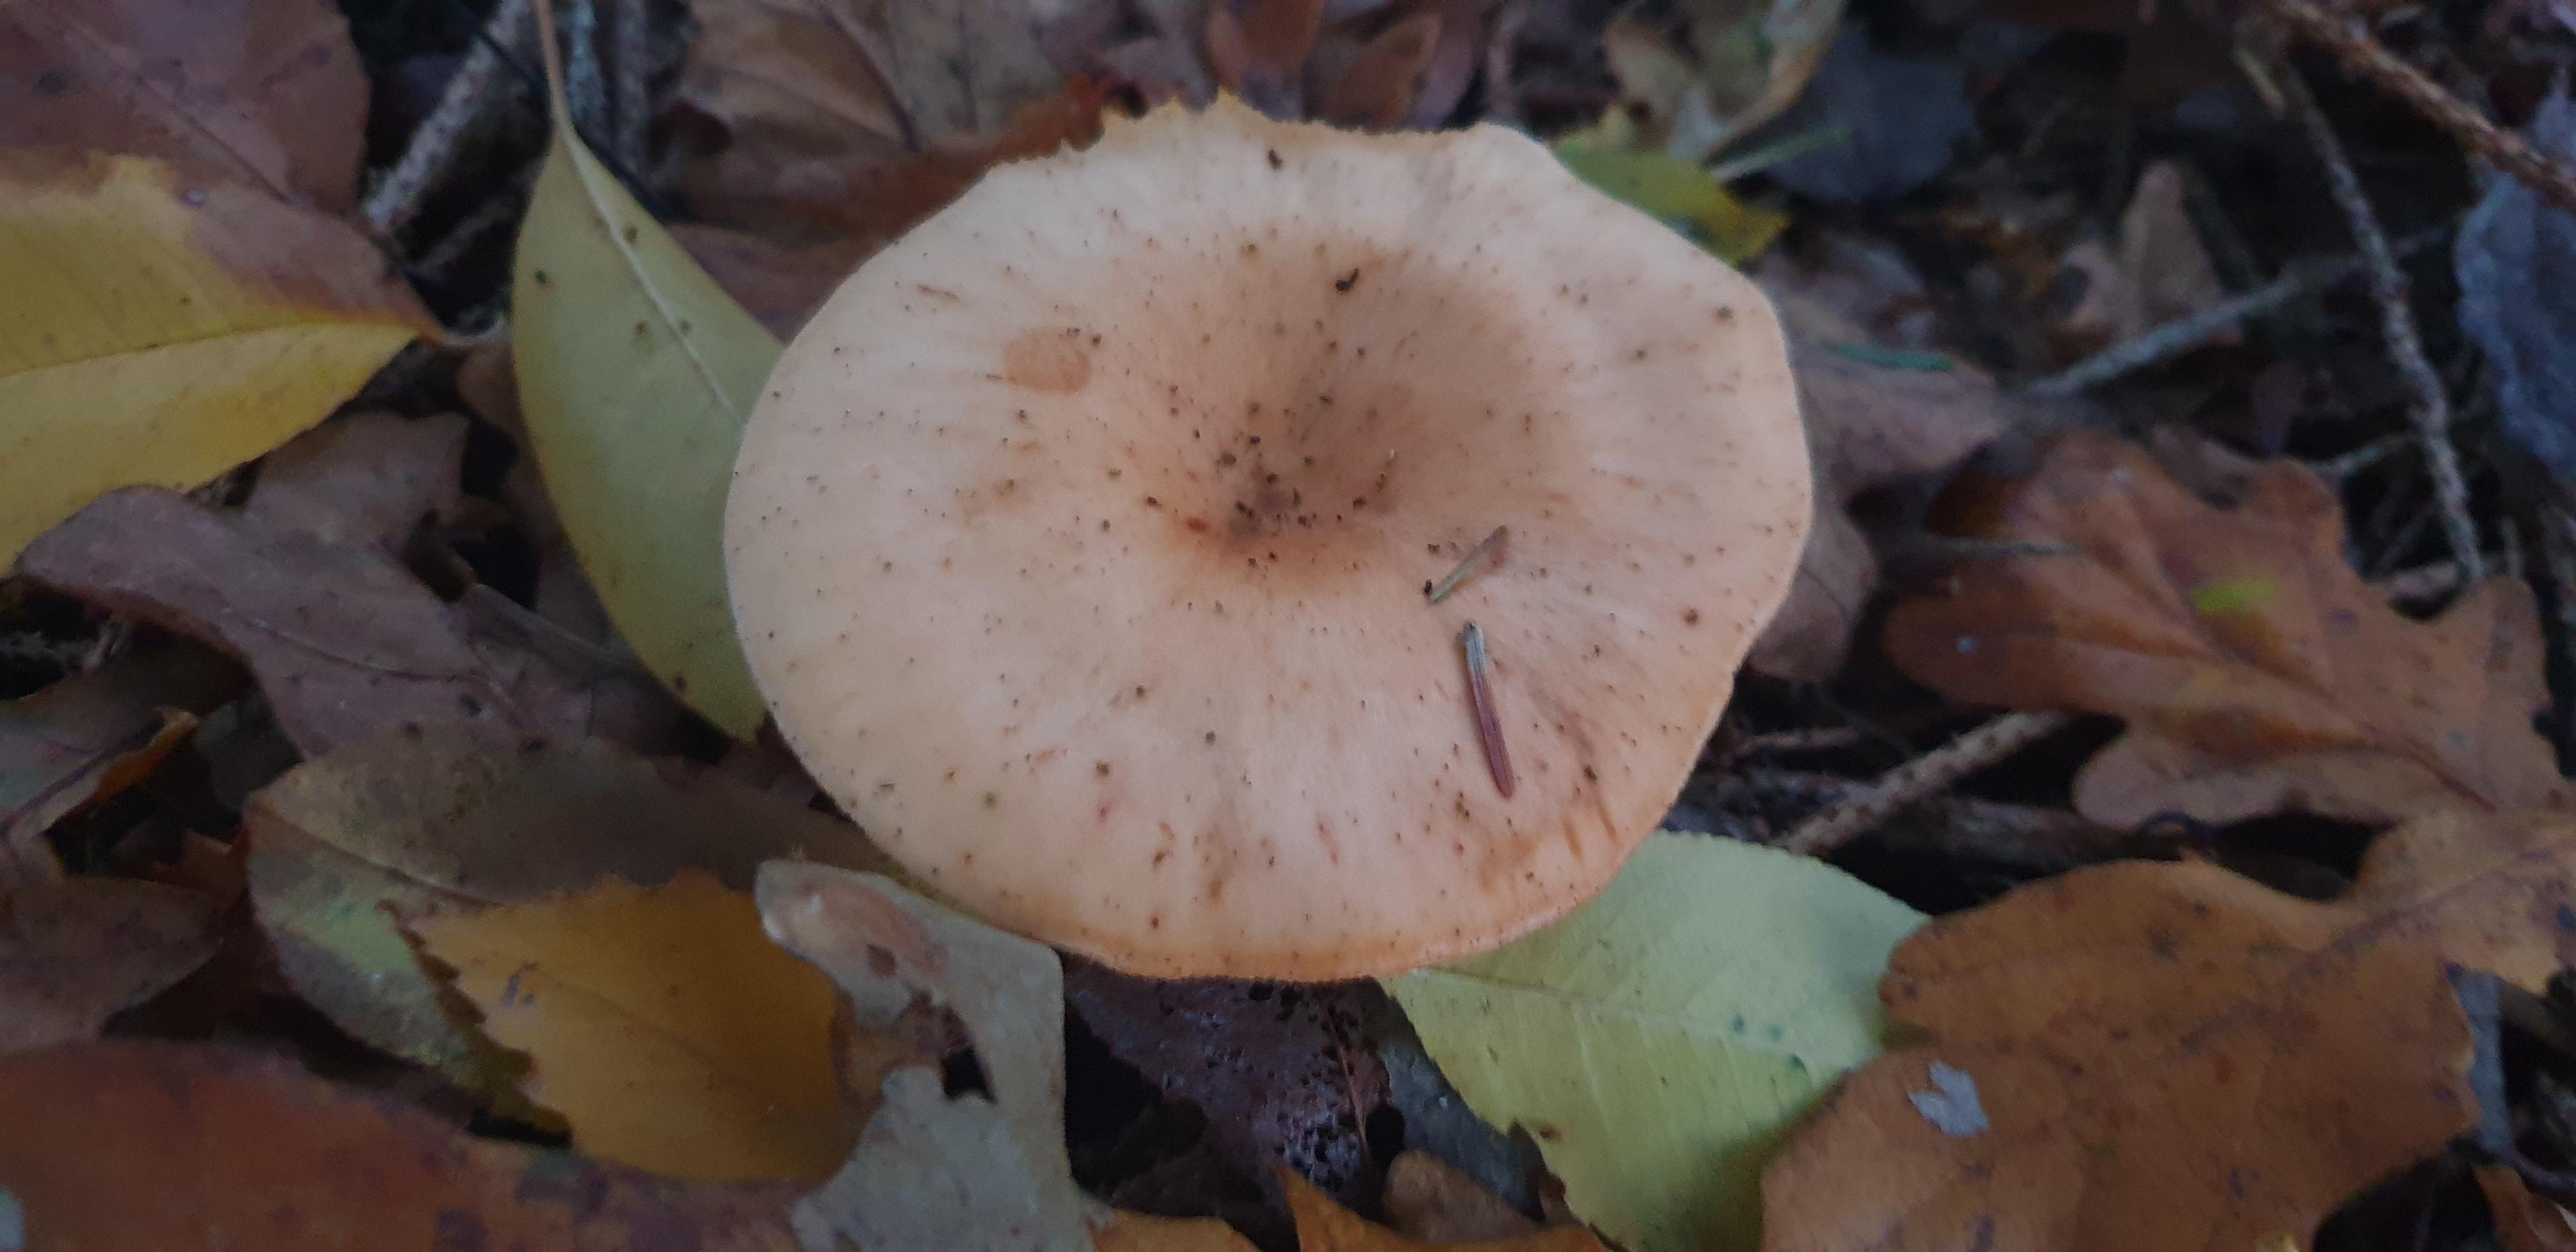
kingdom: Fungi
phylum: Basidiomycota
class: Agaricomycetes
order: Agaricales
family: Tricholomataceae
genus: Paralepista
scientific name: Paralepista flaccida
